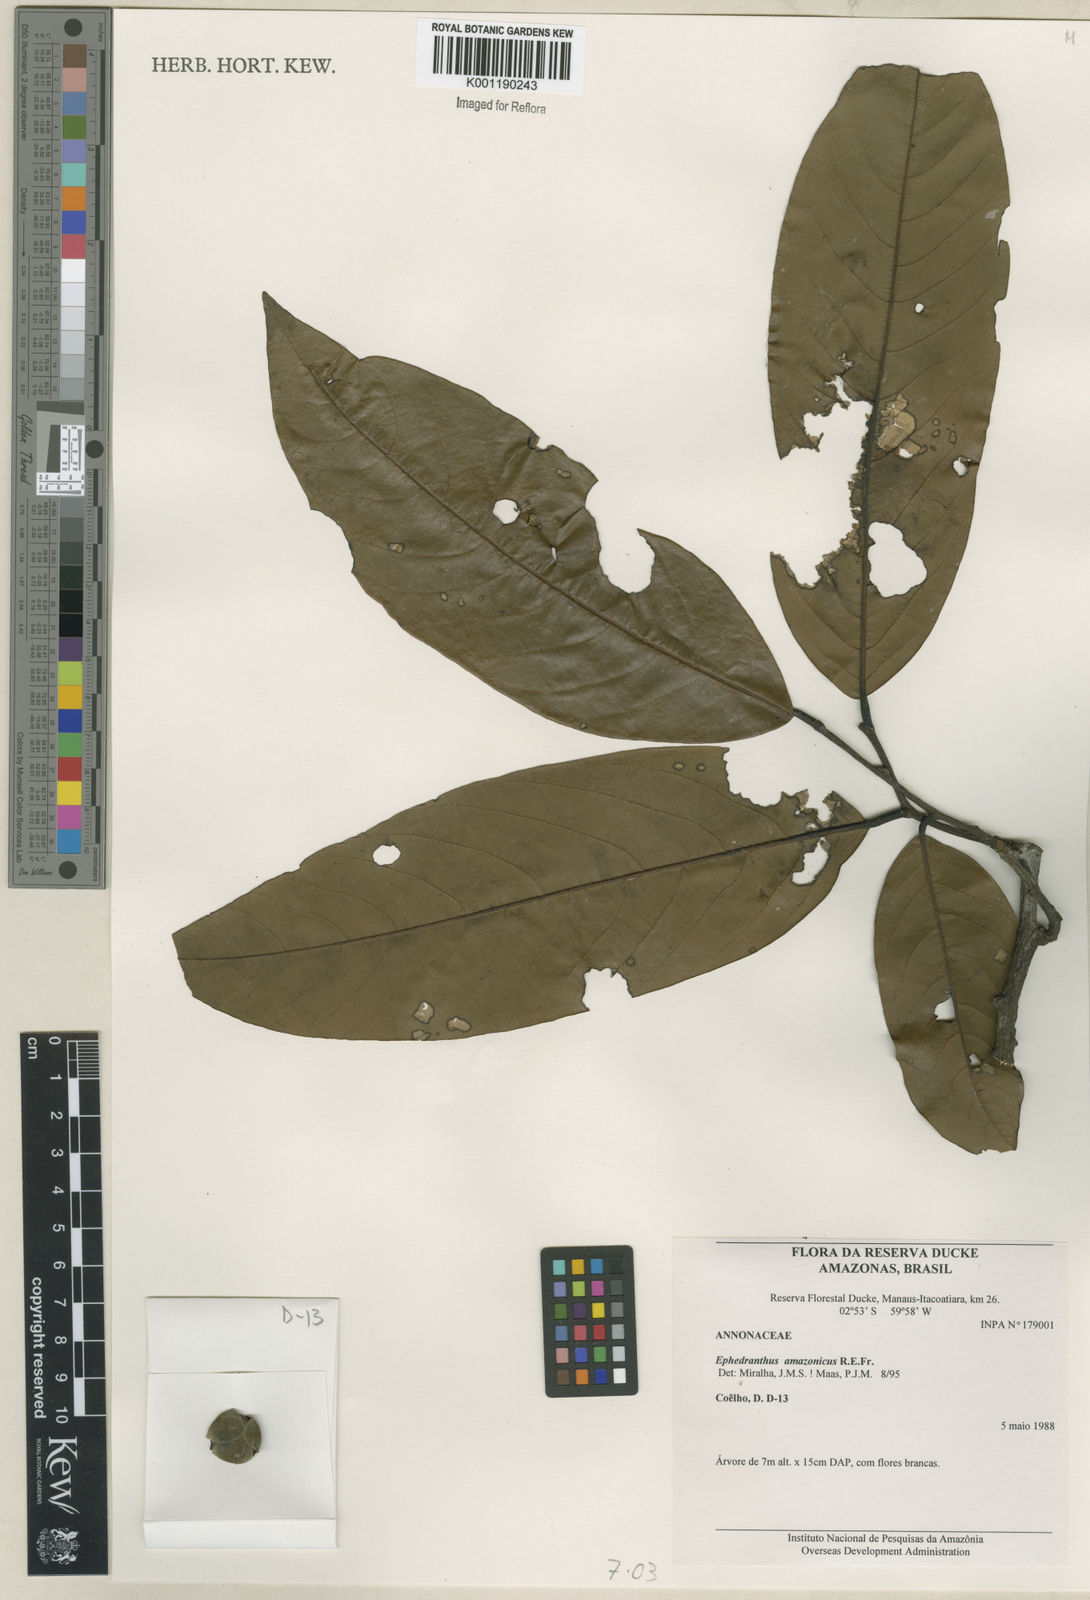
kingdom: Plantae
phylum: Tracheophyta
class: Magnoliopsida
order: Magnoliales
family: Annonaceae
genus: Ephedranthus
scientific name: Ephedranthus amazonicus
